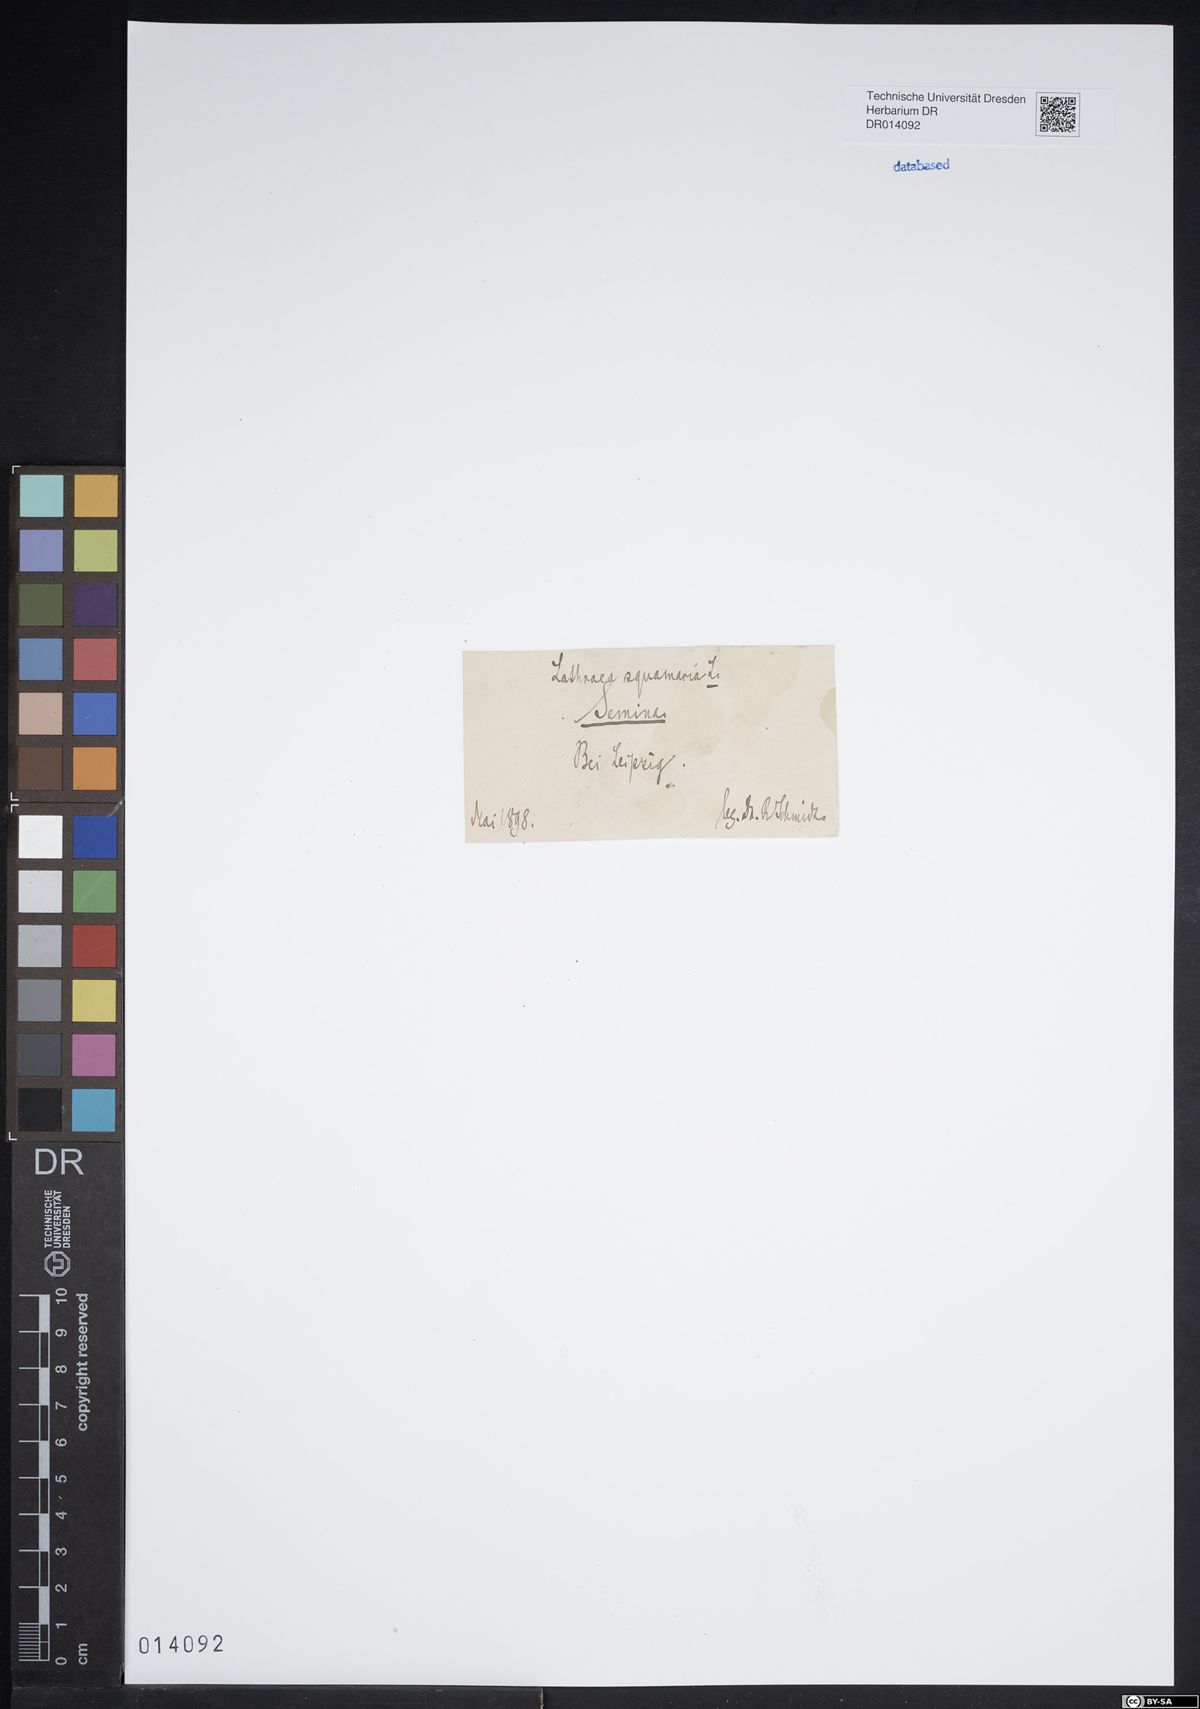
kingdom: Plantae
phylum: Tracheophyta
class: Magnoliopsida
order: Lamiales
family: Orobanchaceae
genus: Lathraea
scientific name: Lathraea squamaria
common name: Toothwort
